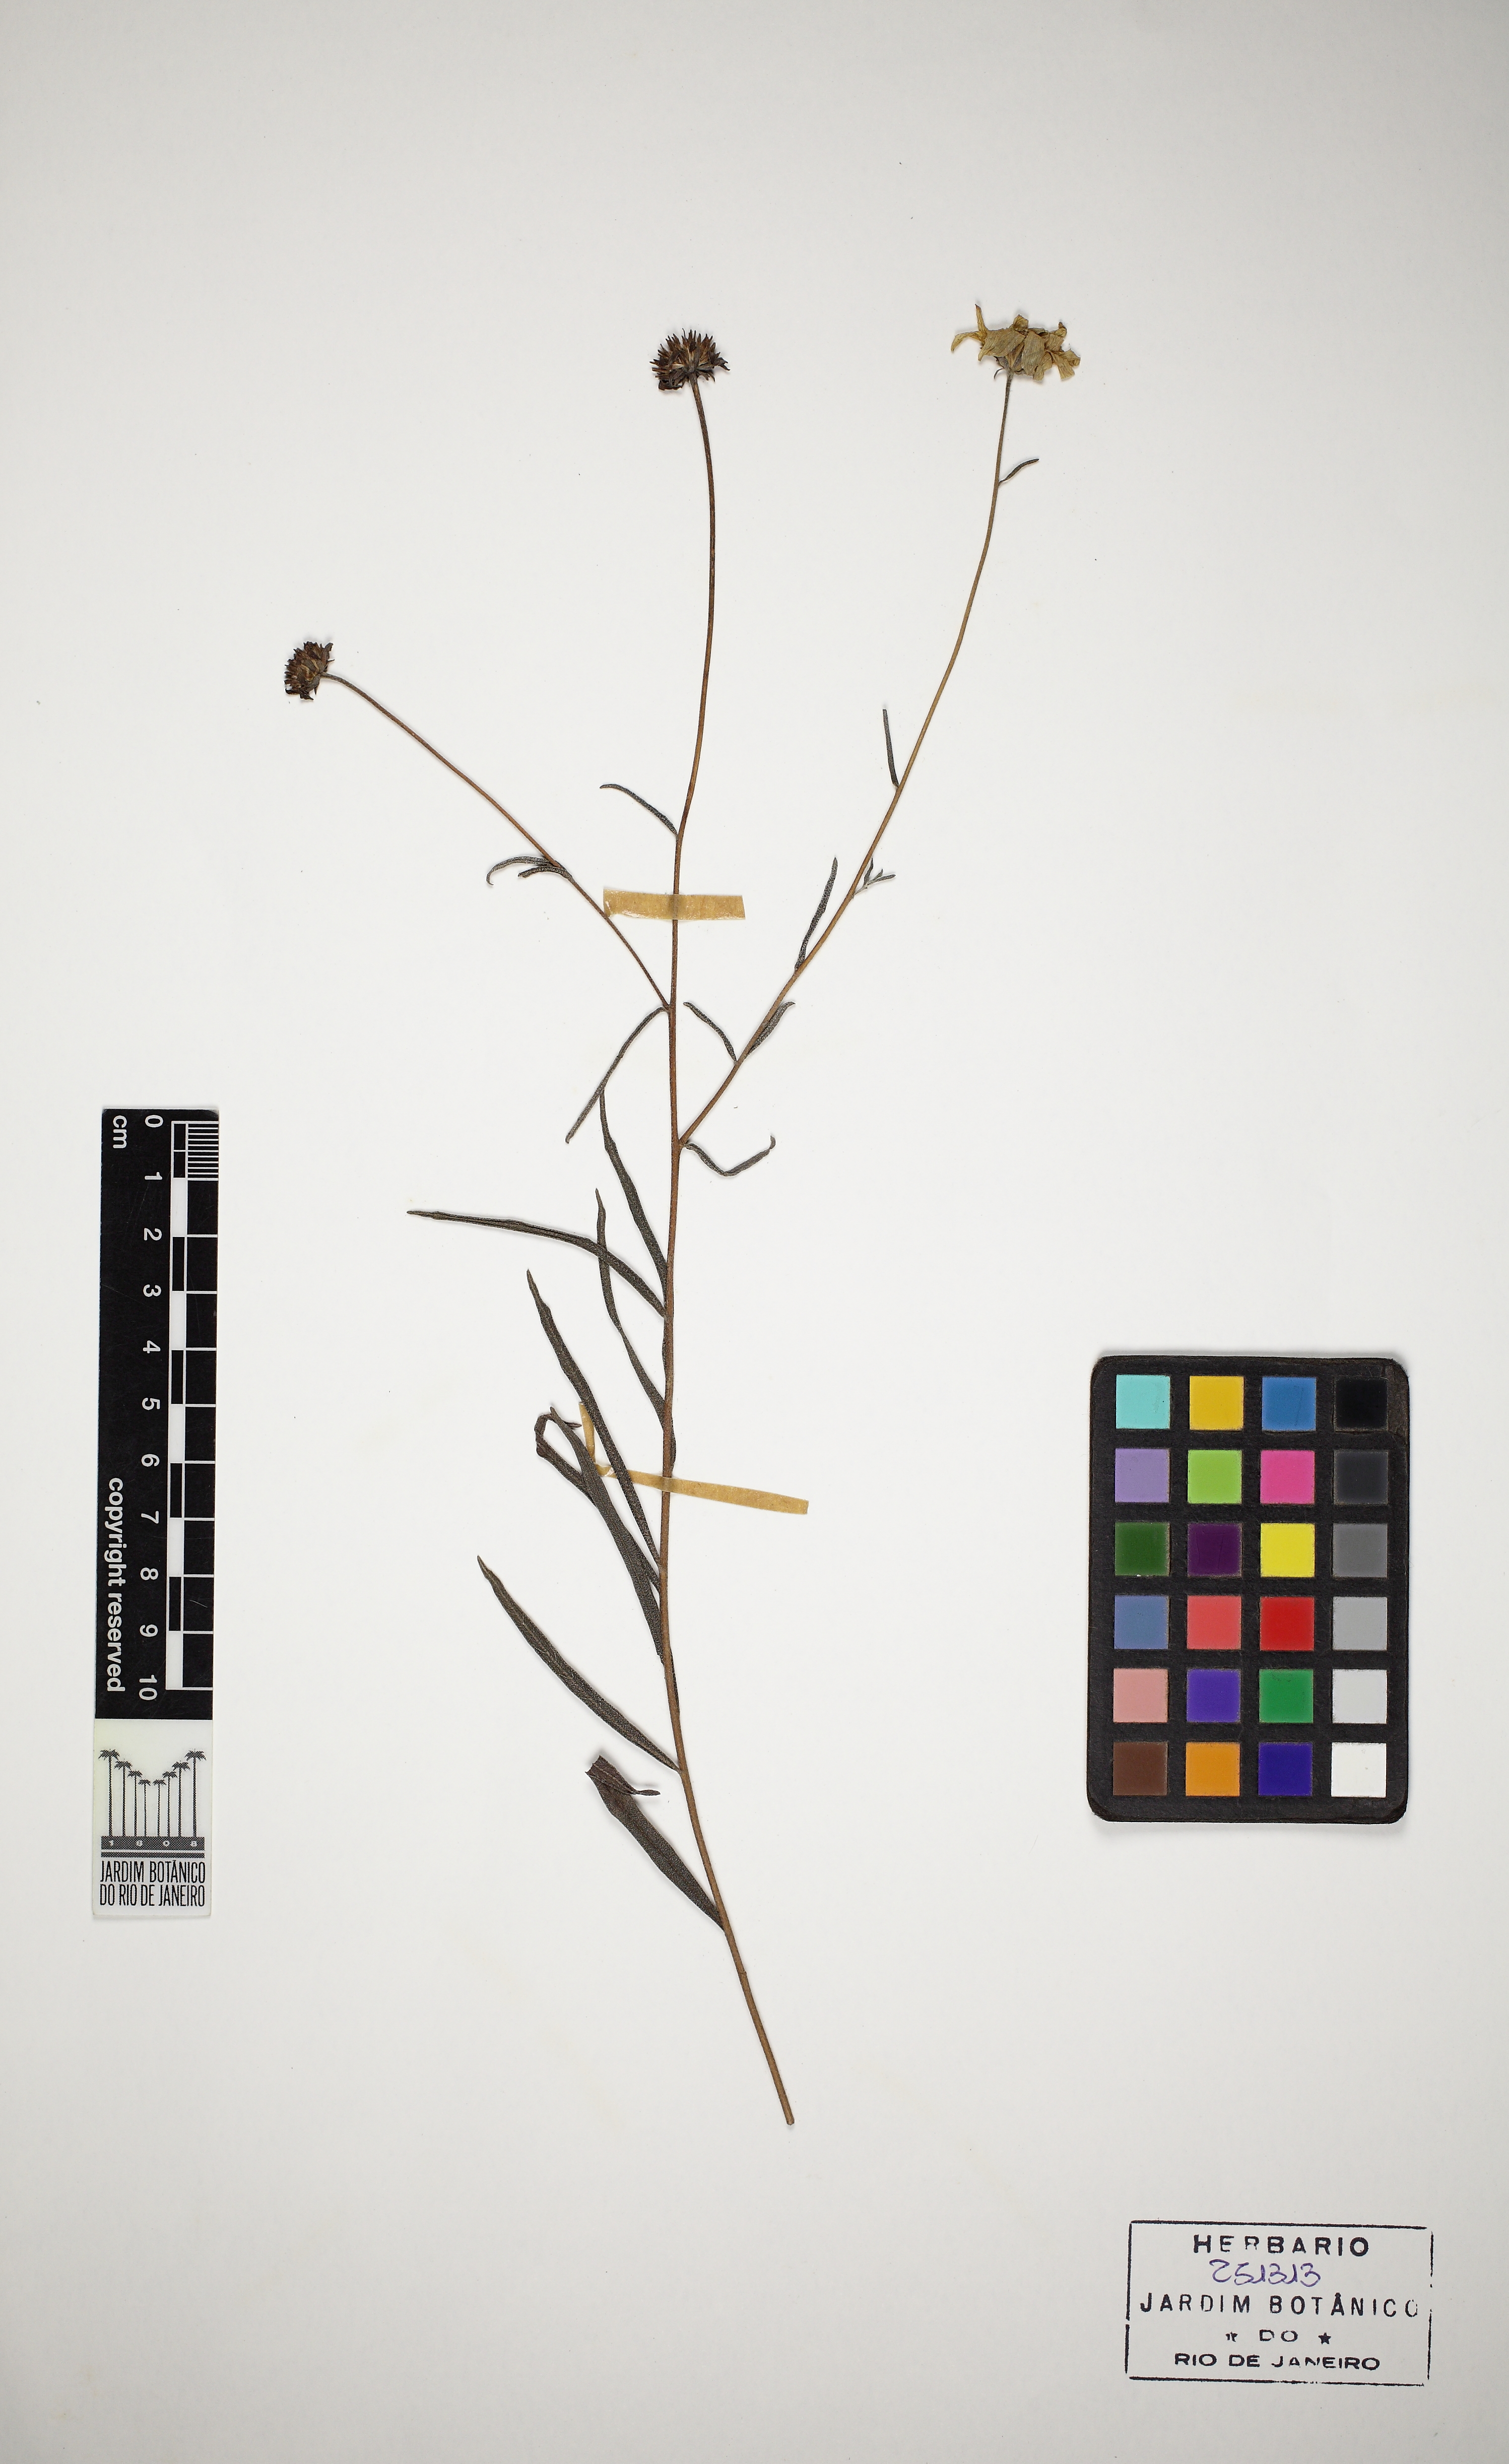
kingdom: Plantae
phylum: Tracheophyta
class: Magnoliopsida
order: Asterales
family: Asteraceae
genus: Viguiera
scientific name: Viguiera anchusaefolia
